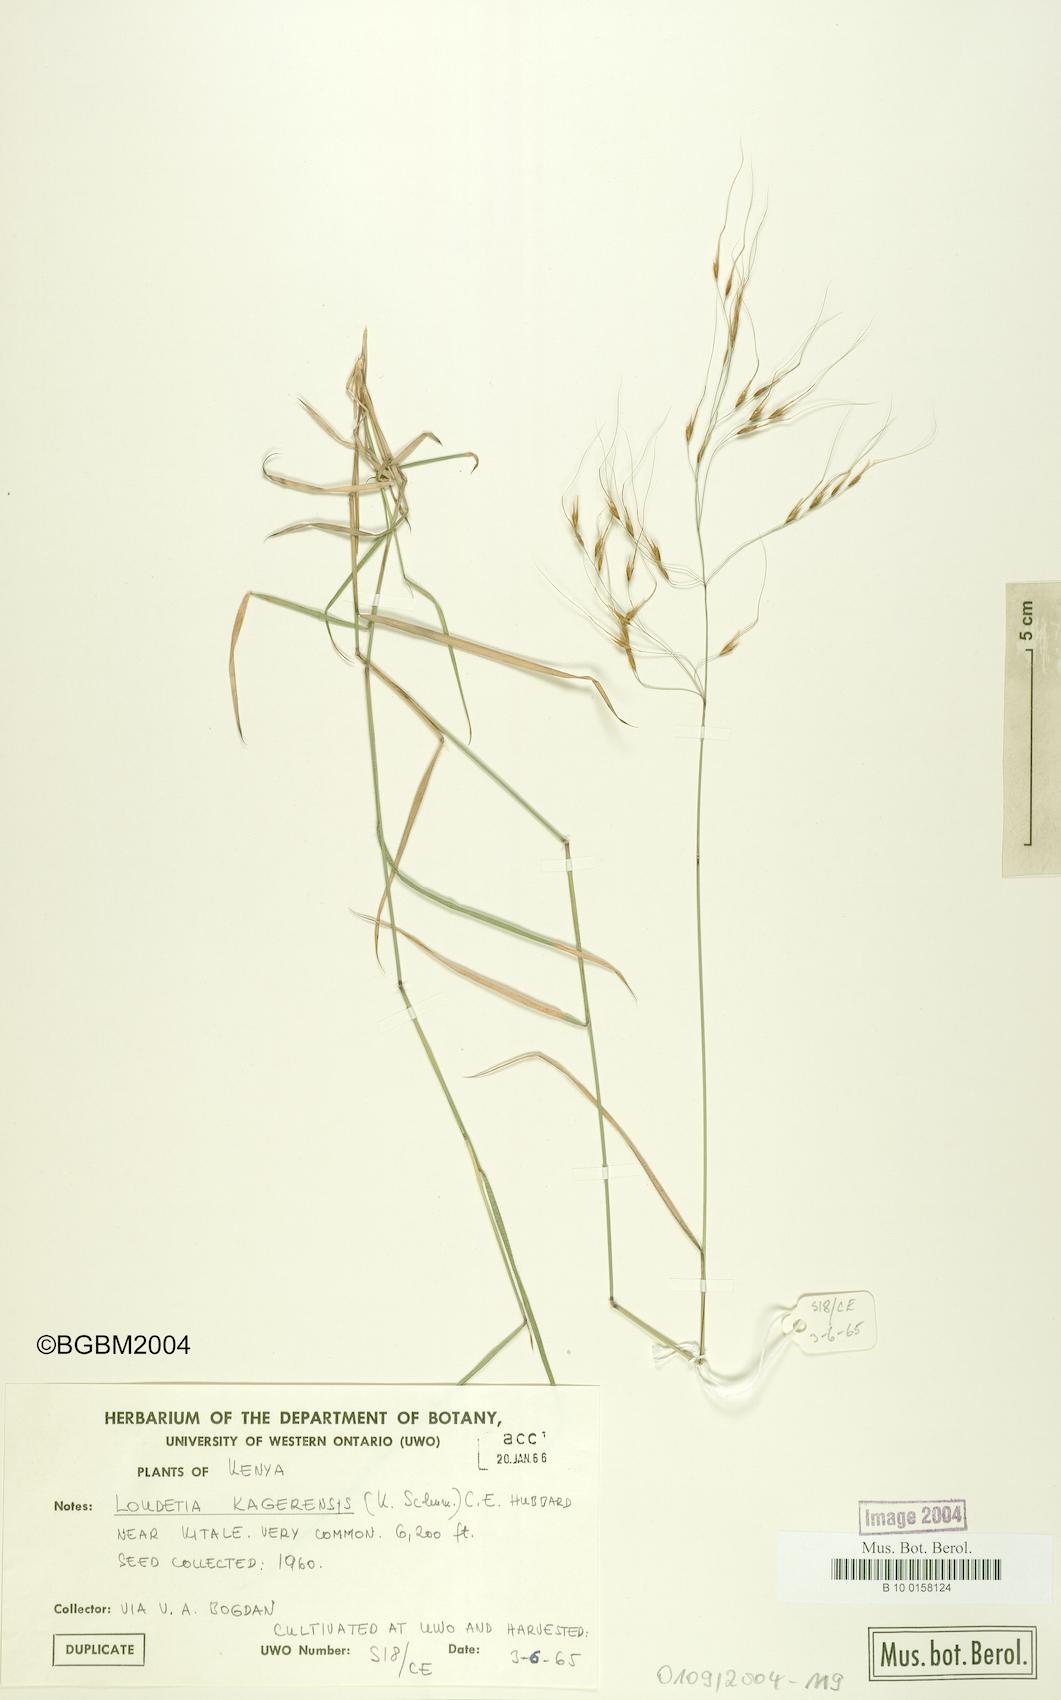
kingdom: Plantae
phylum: Tracheophyta
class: Liliopsida
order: Poales
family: Poaceae
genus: Loudetia
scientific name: Loudetia kagerensis
